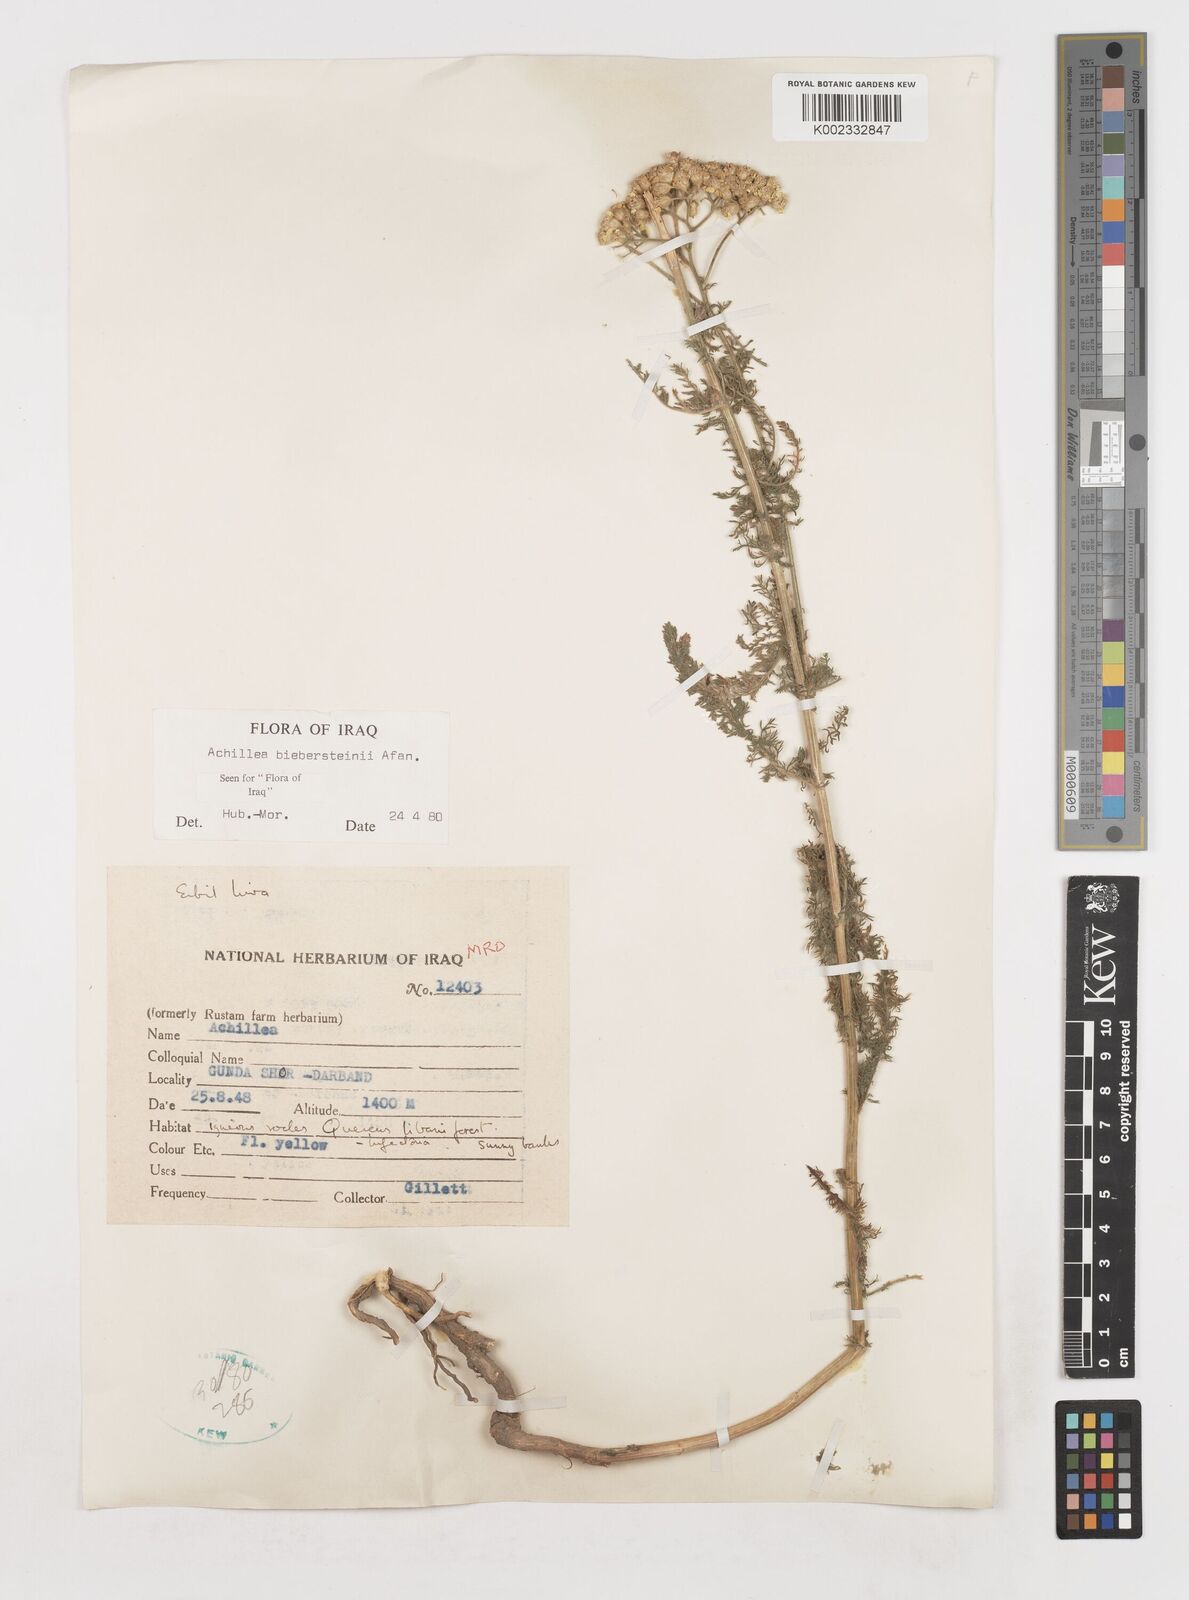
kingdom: Plantae
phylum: Tracheophyta
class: Magnoliopsida
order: Asterales
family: Asteraceae
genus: Achillea
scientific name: Achillea arabica
